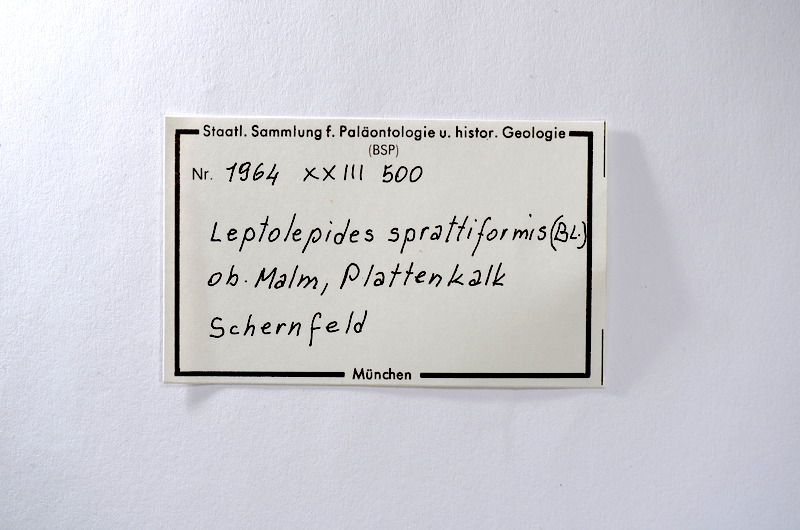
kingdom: Animalia
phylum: Chordata
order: Salmoniformes
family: Orthogonikleithridae
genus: Leptolepides
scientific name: Leptolepides sprattiformis
